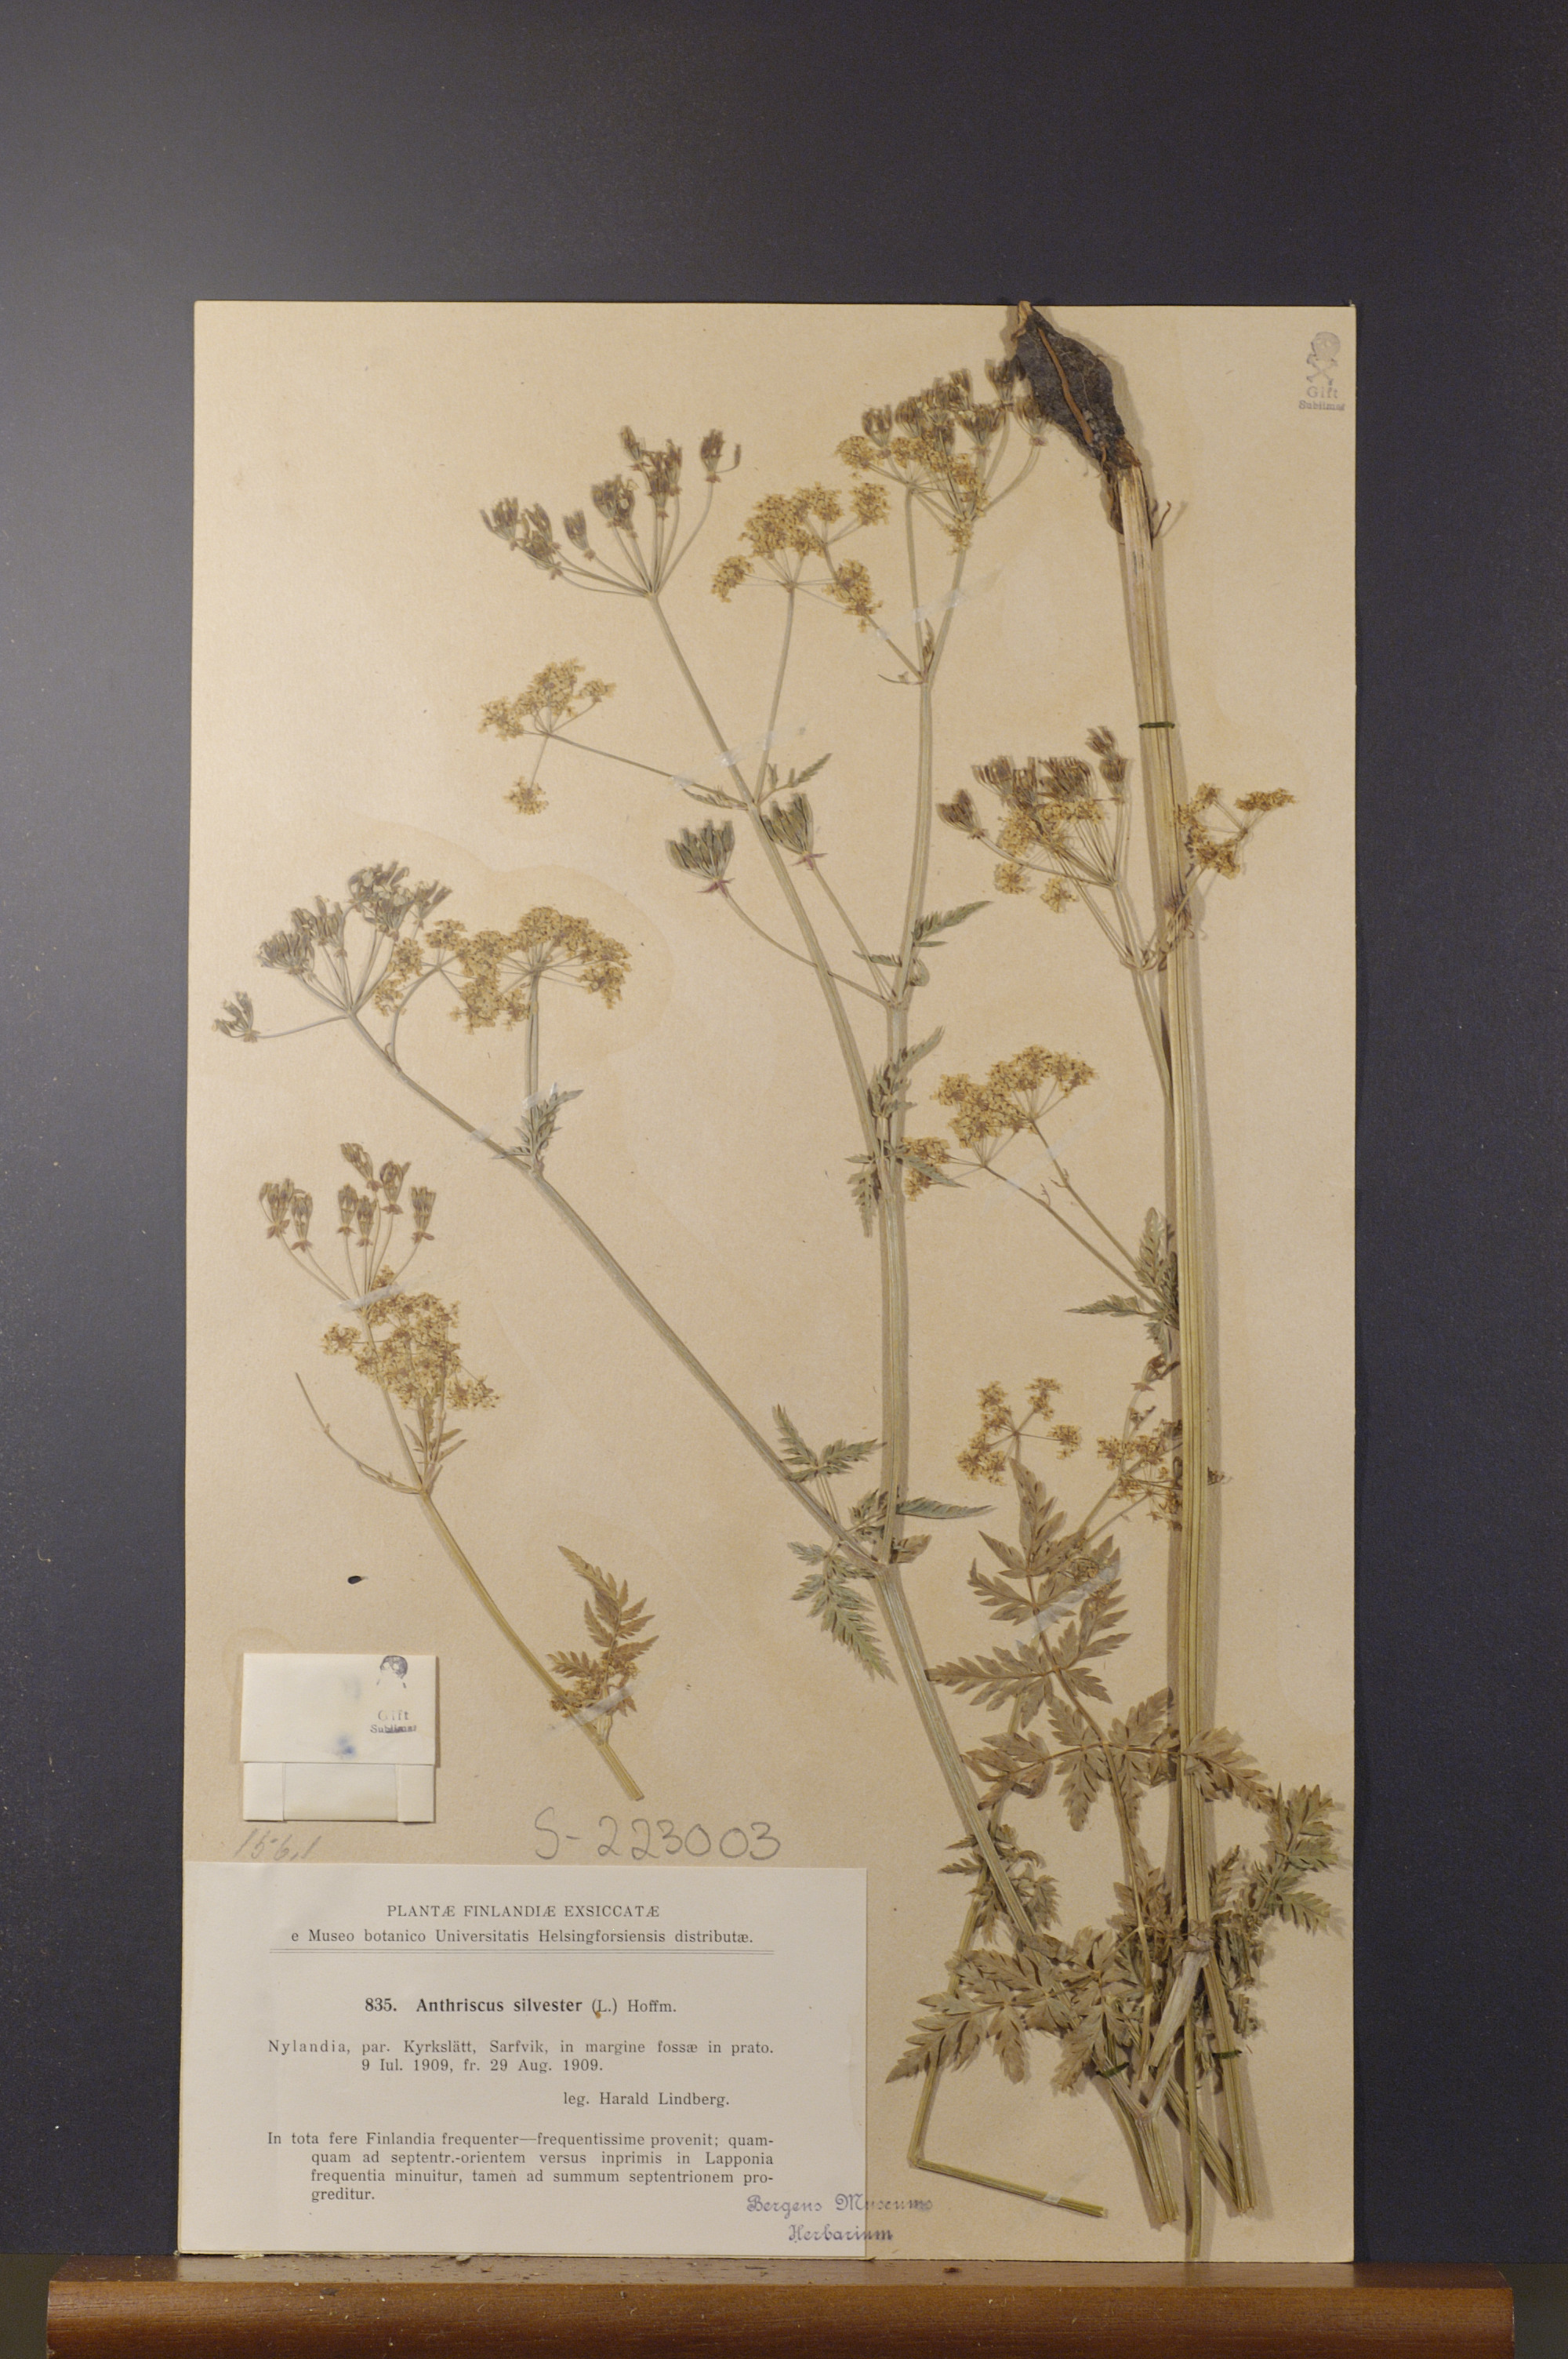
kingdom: Plantae
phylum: Tracheophyta
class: Magnoliopsida
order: Apiales
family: Apiaceae
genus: Anthriscus
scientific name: Anthriscus sylvestris
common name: Cow parsley
